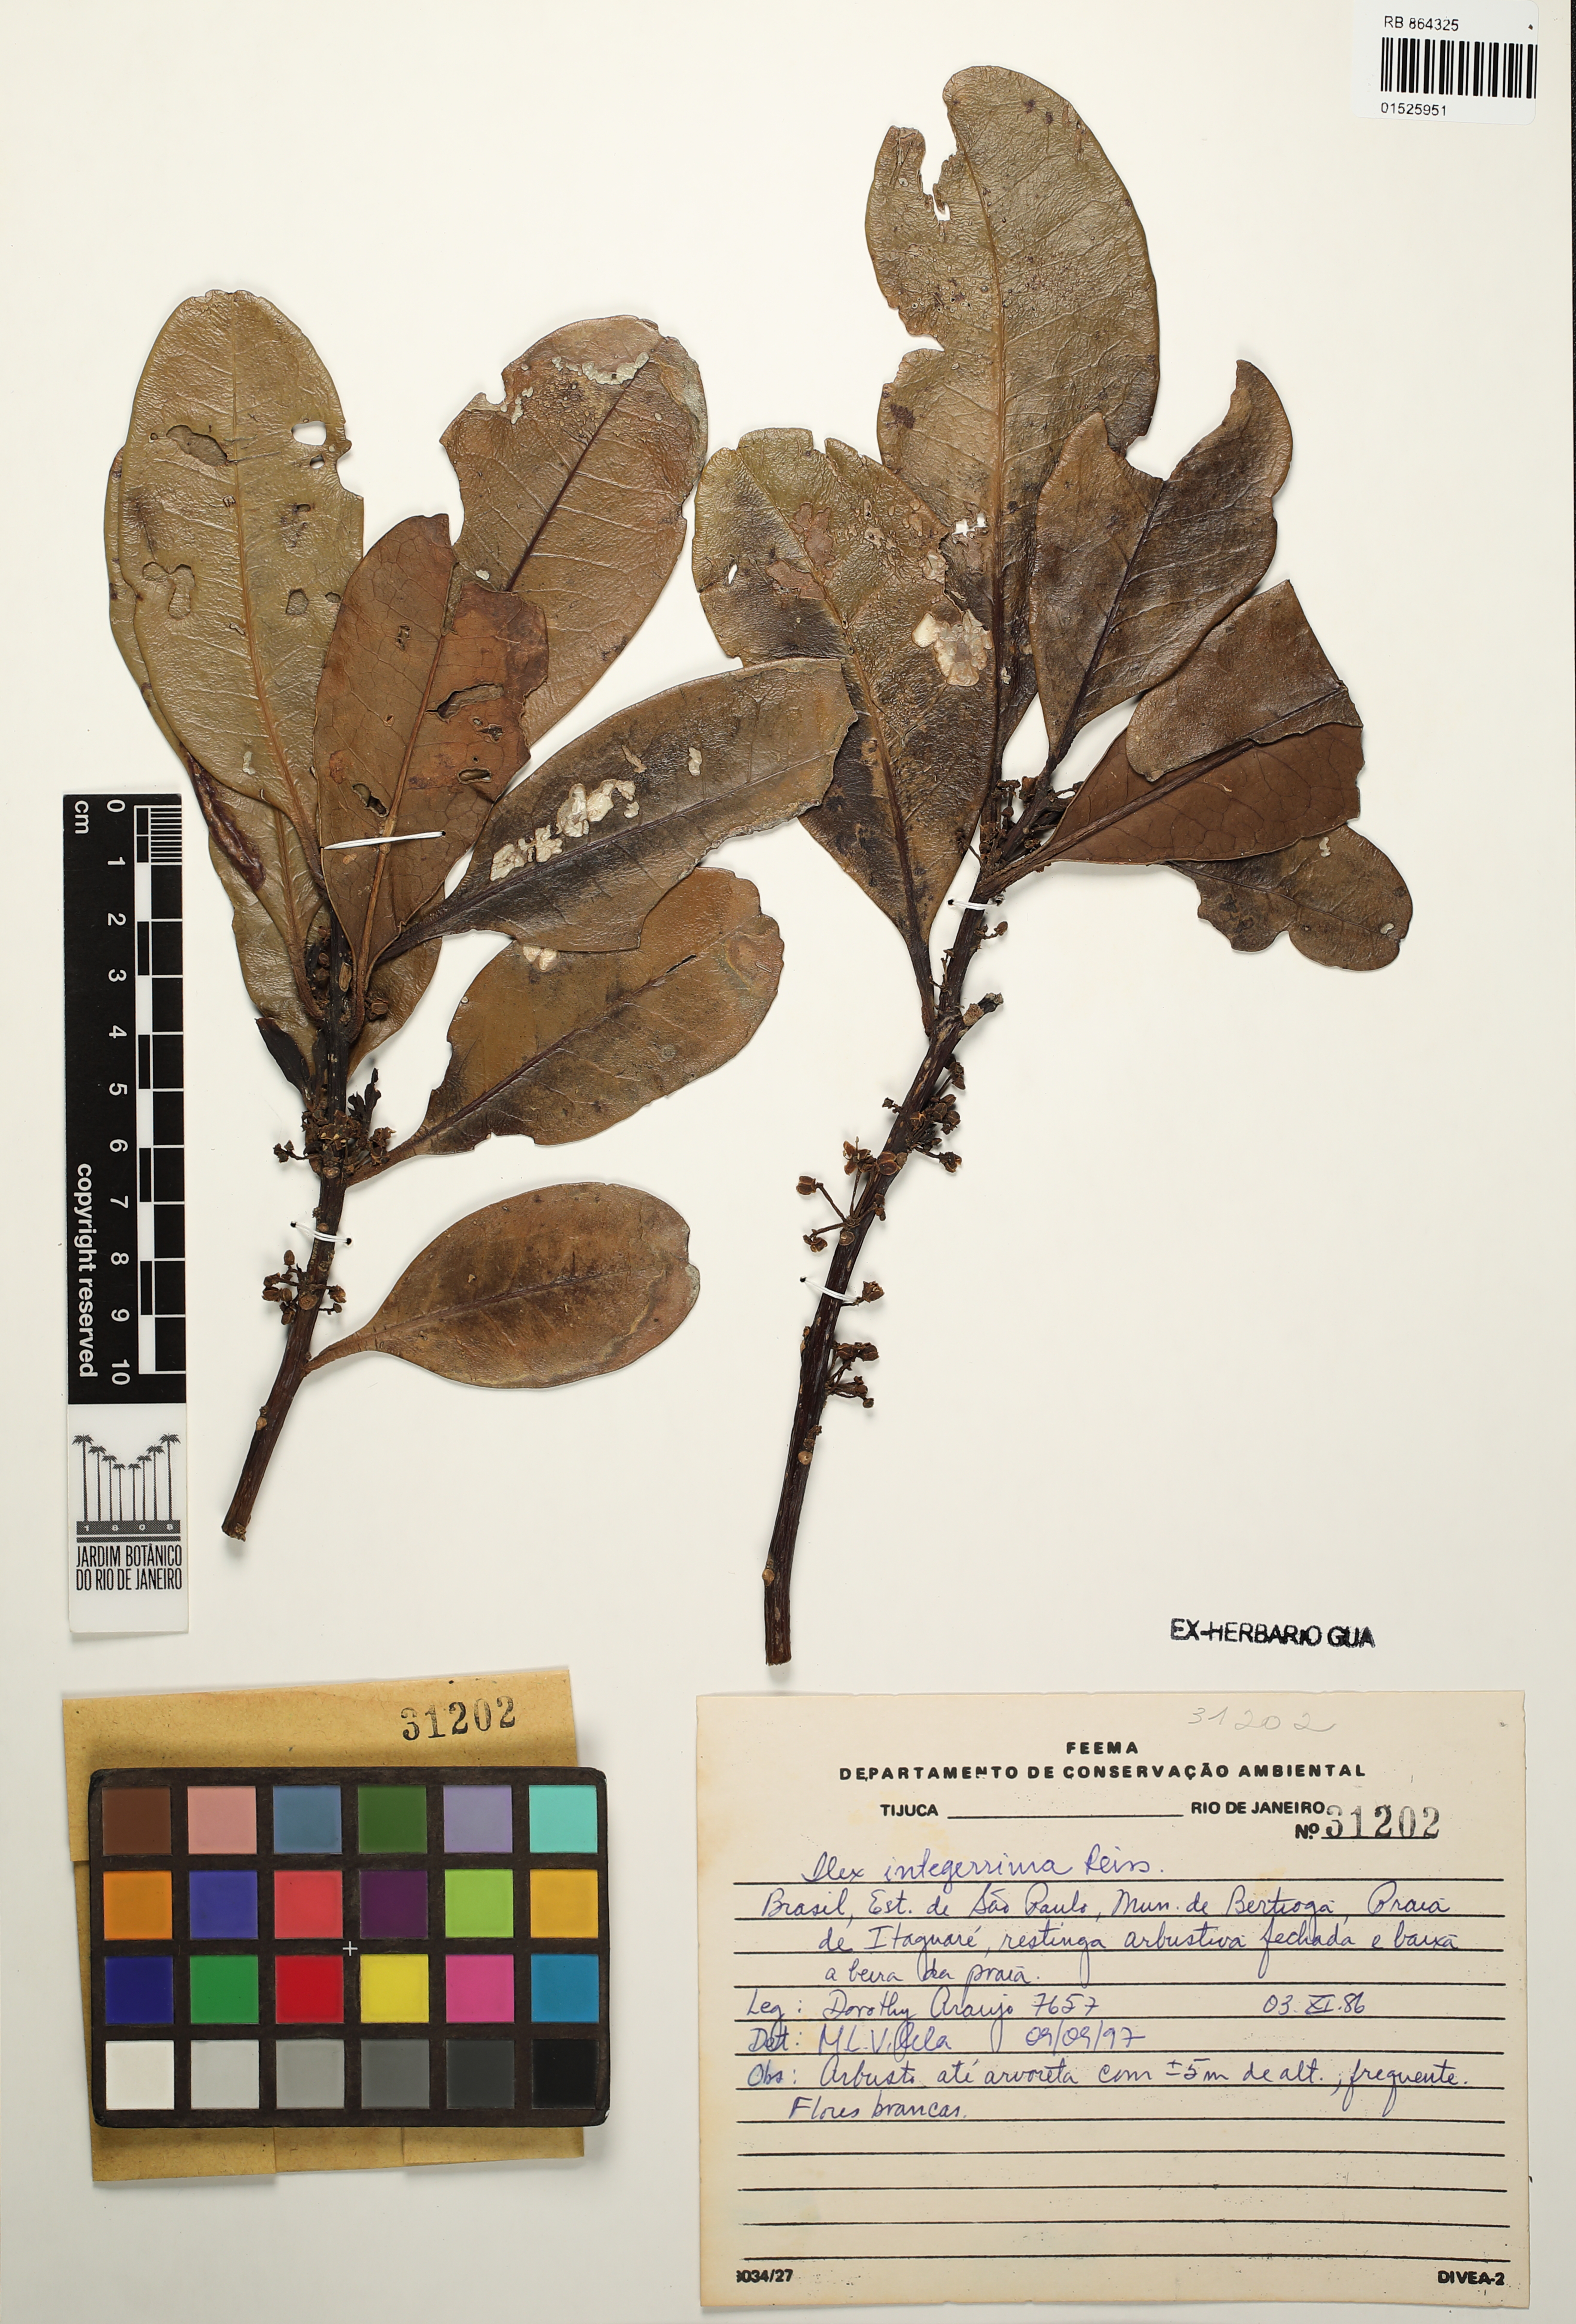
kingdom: Plantae
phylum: Tracheophyta
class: Magnoliopsida
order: Aquifoliales
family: Aquifoliaceae
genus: Ilex
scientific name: Ilex integerrima
